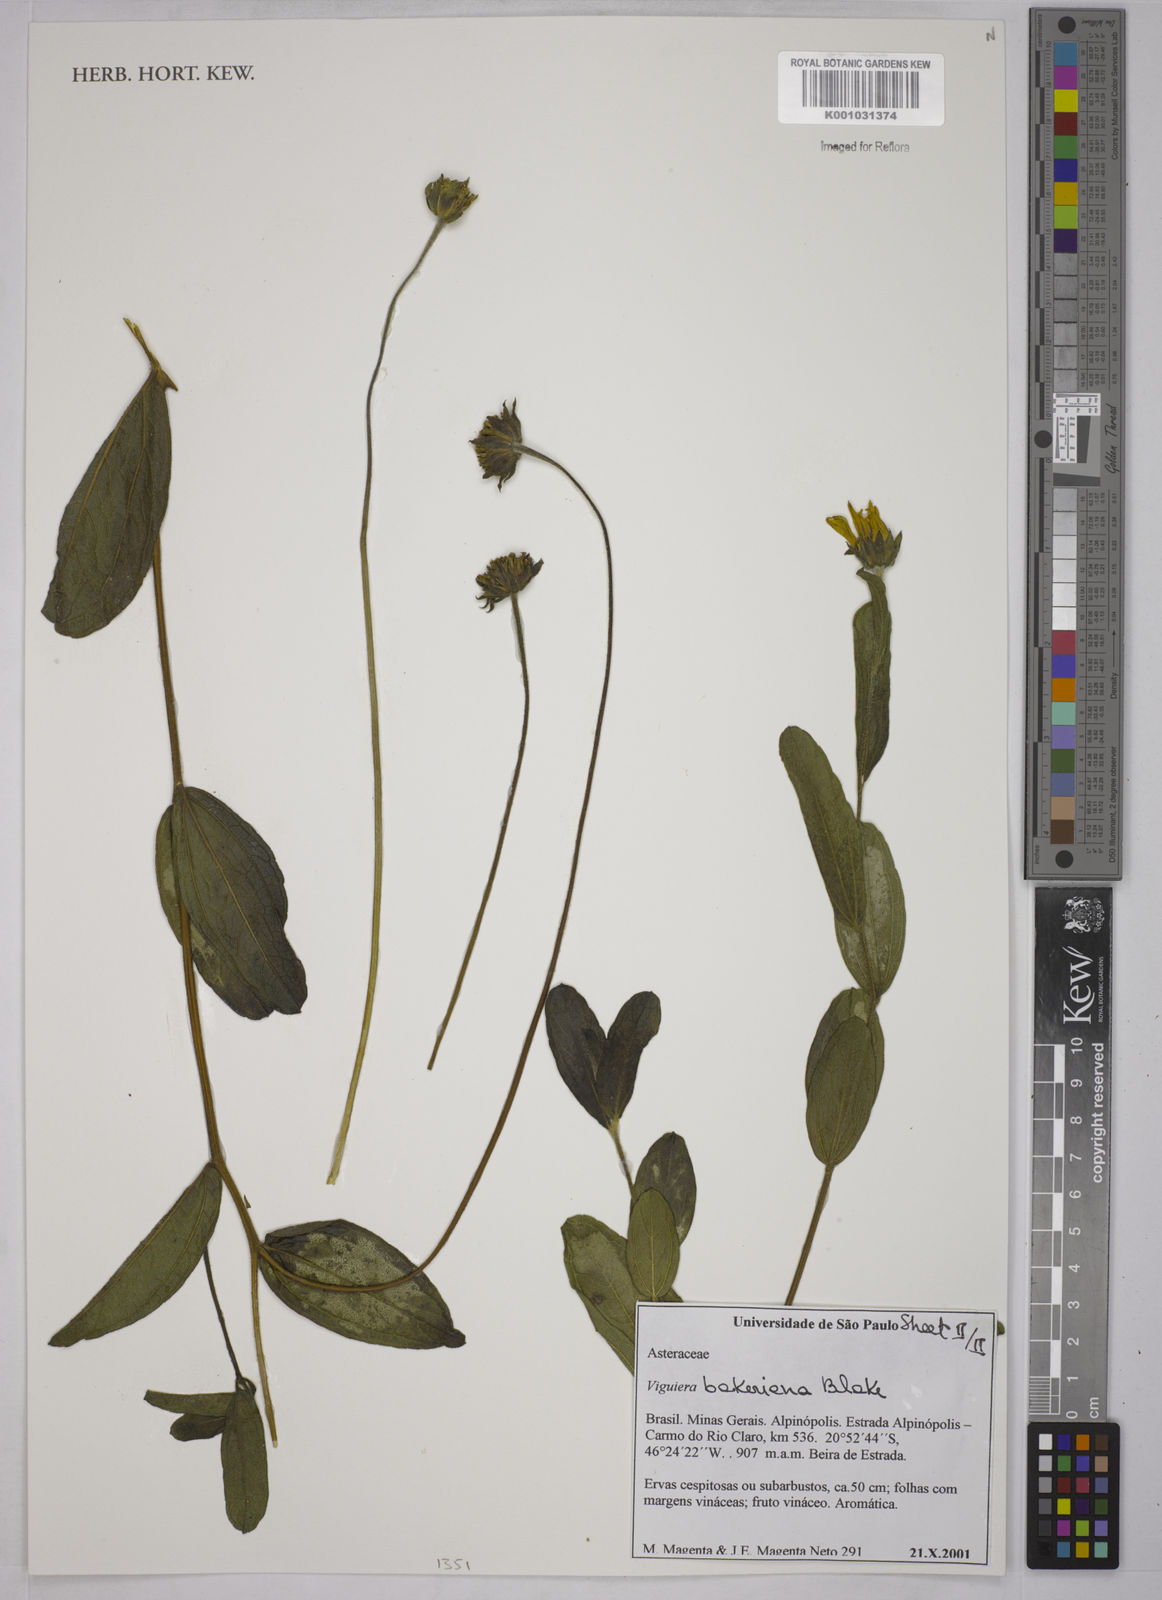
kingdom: Plantae
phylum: Tracheophyta
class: Magnoliopsida
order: Asterales
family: Asteraceae
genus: Aldama
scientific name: Aldama bakeriana
